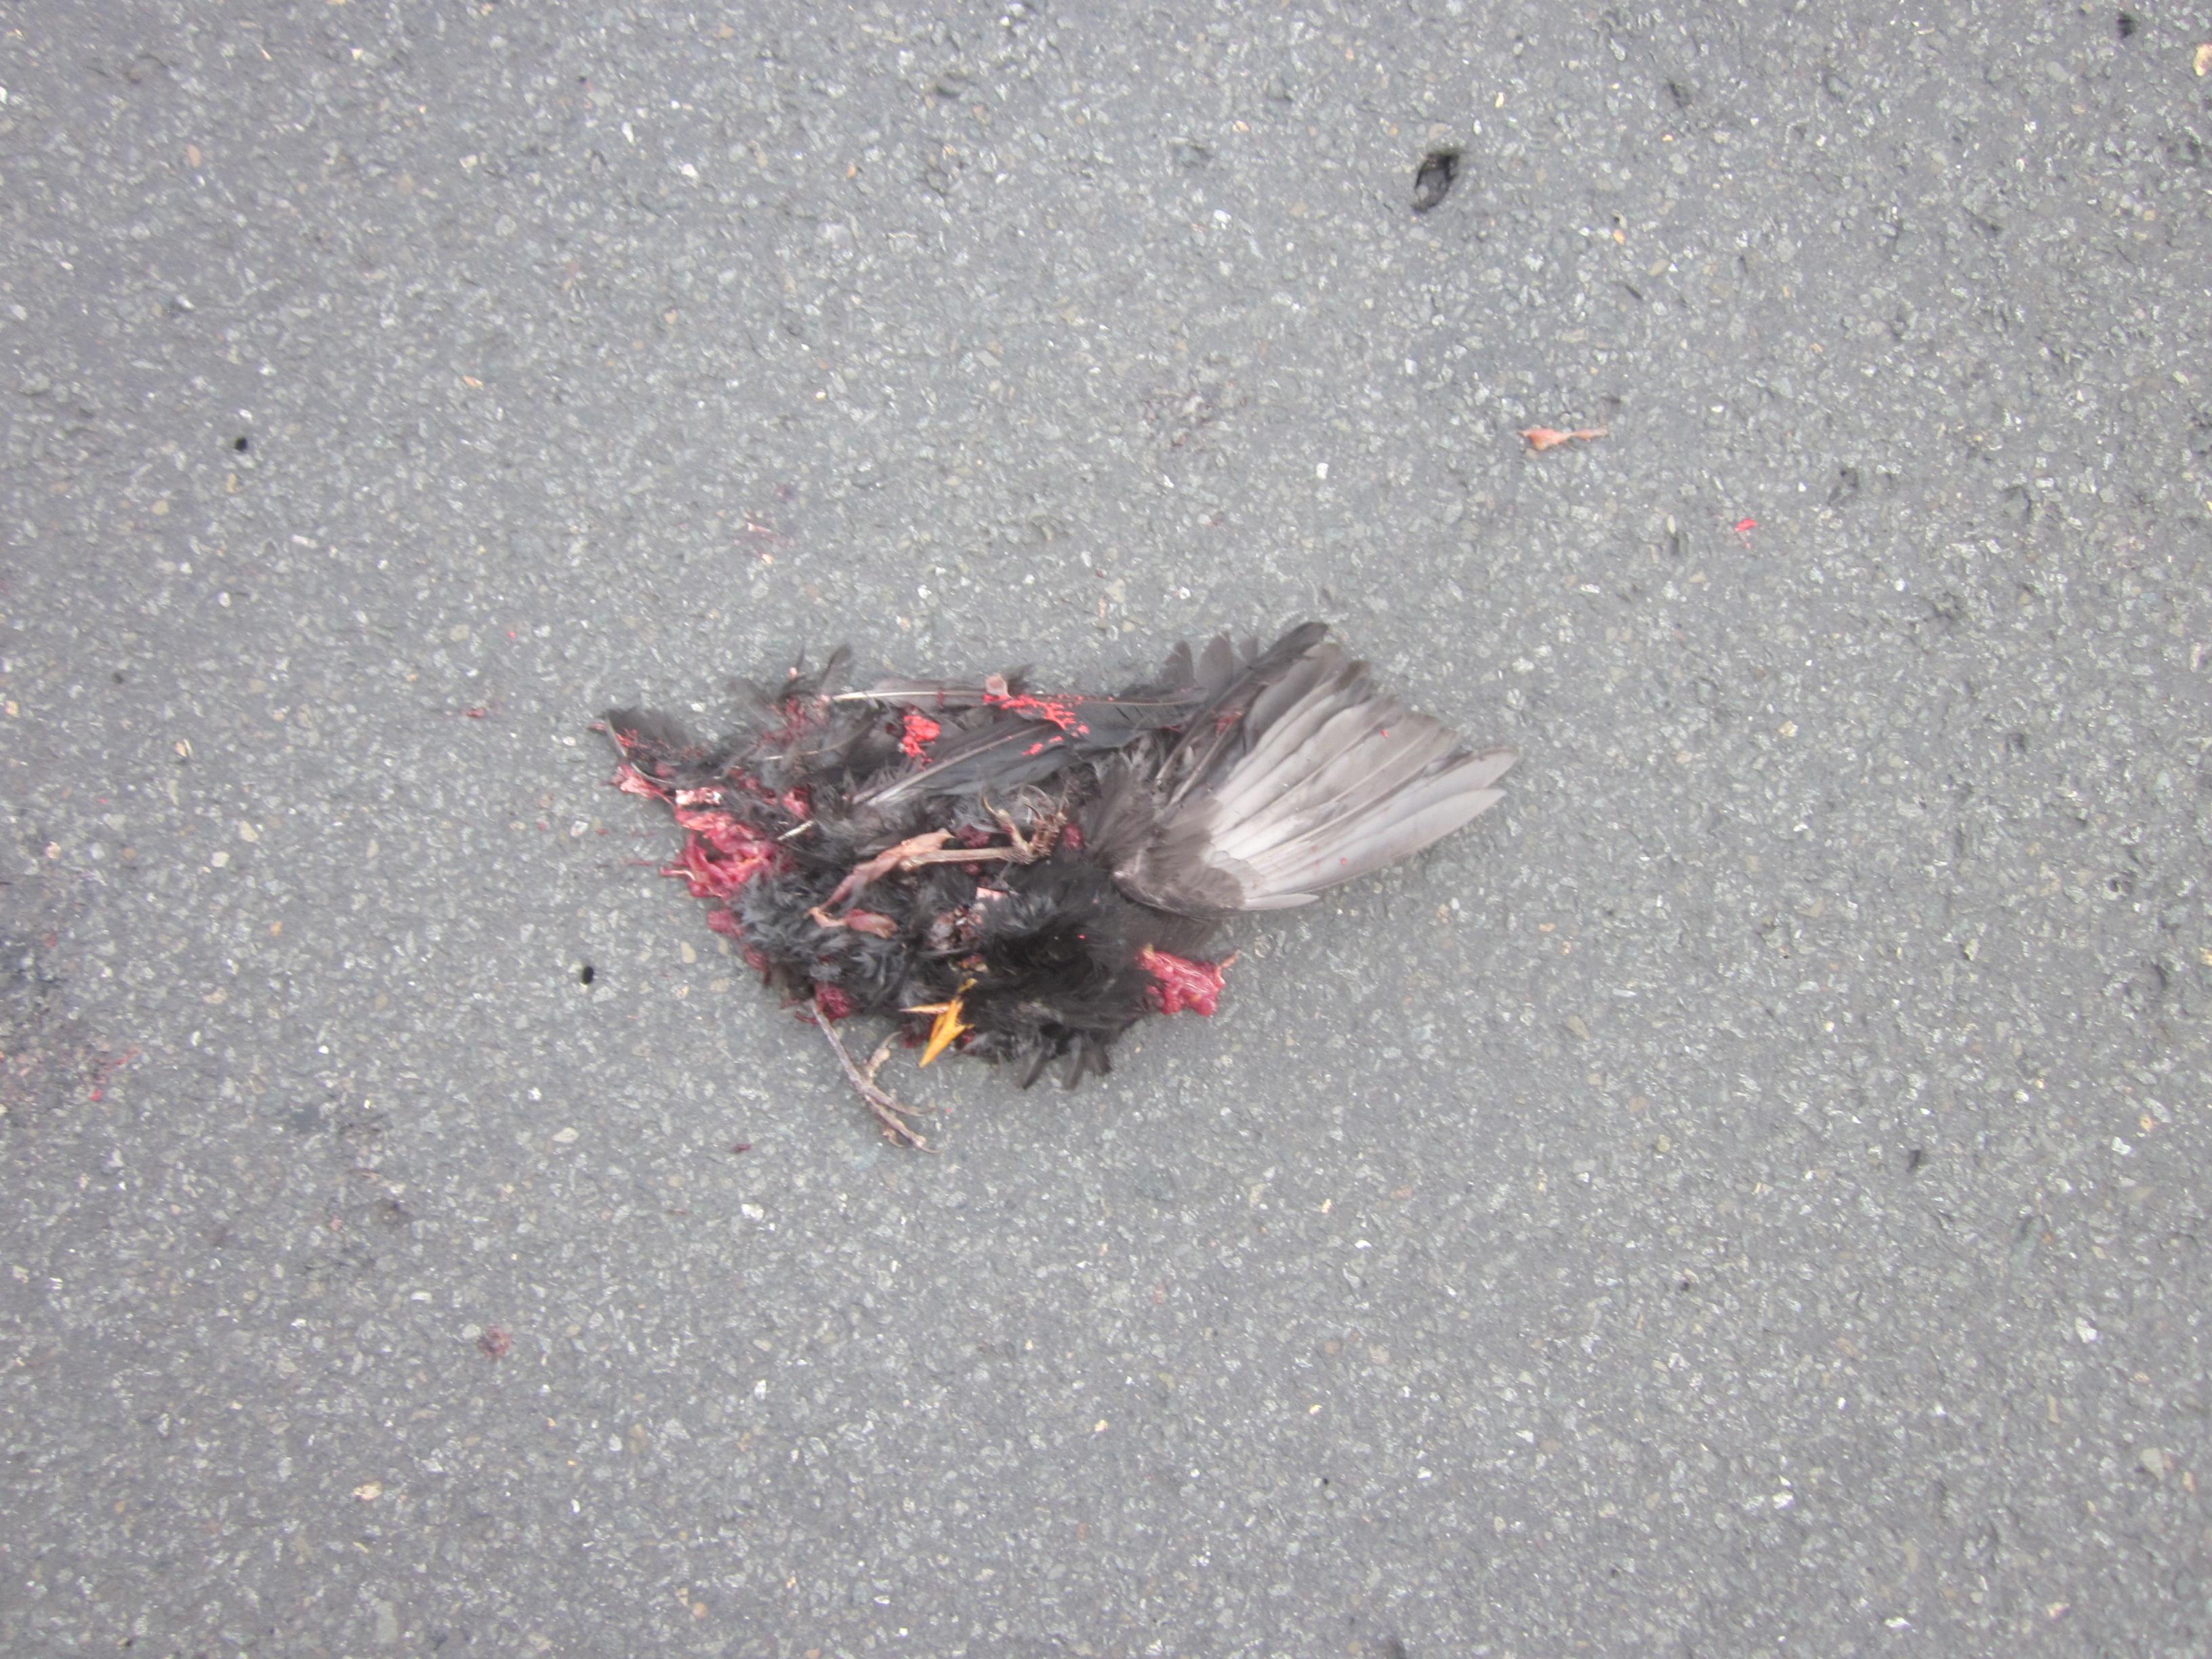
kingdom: Animalia
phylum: Chordata
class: Aves
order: Passeriformes
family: Turdidae
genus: Turdus
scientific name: Turdus merula
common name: Common blackbird
